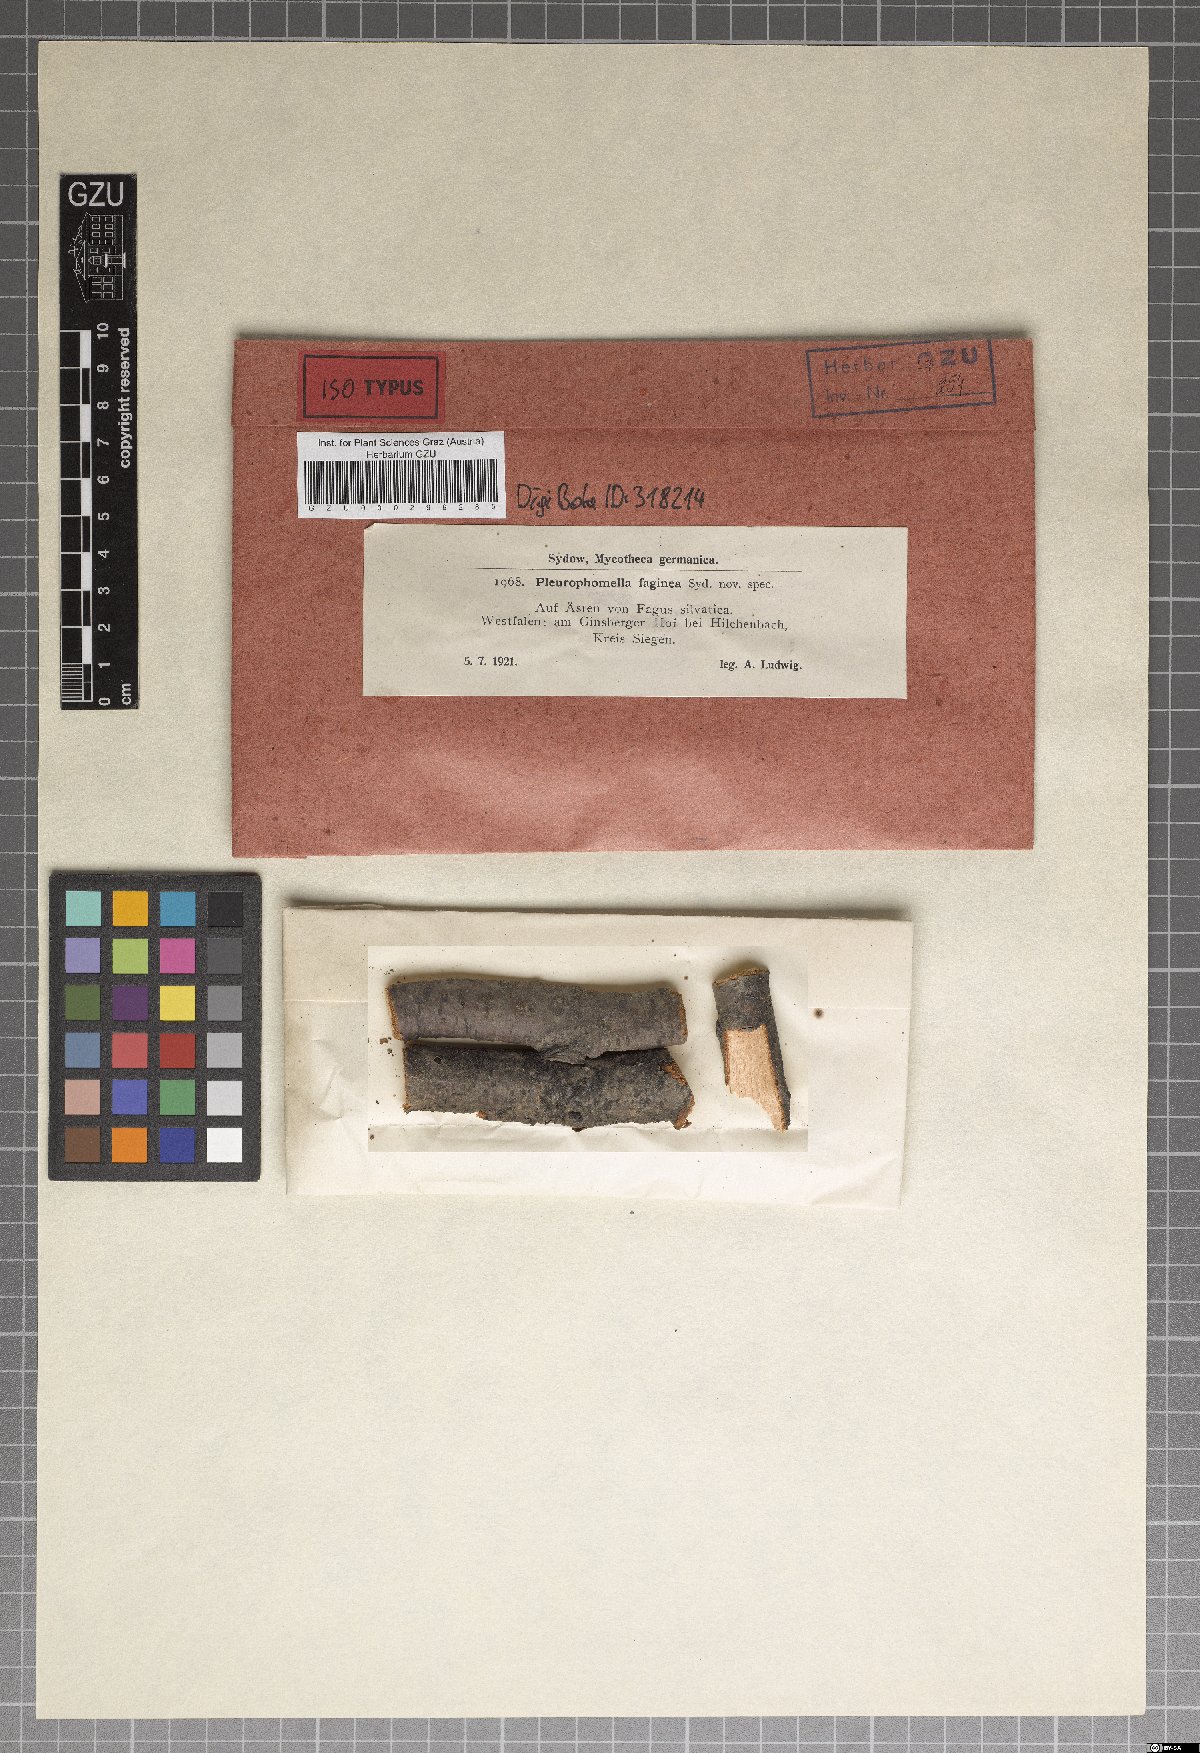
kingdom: Fungi
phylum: Ascomycota
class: Leotiomycetes
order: Leotiales
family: Tympanidaceae
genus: Pleurophomella
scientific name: Pleurophomella faginea
